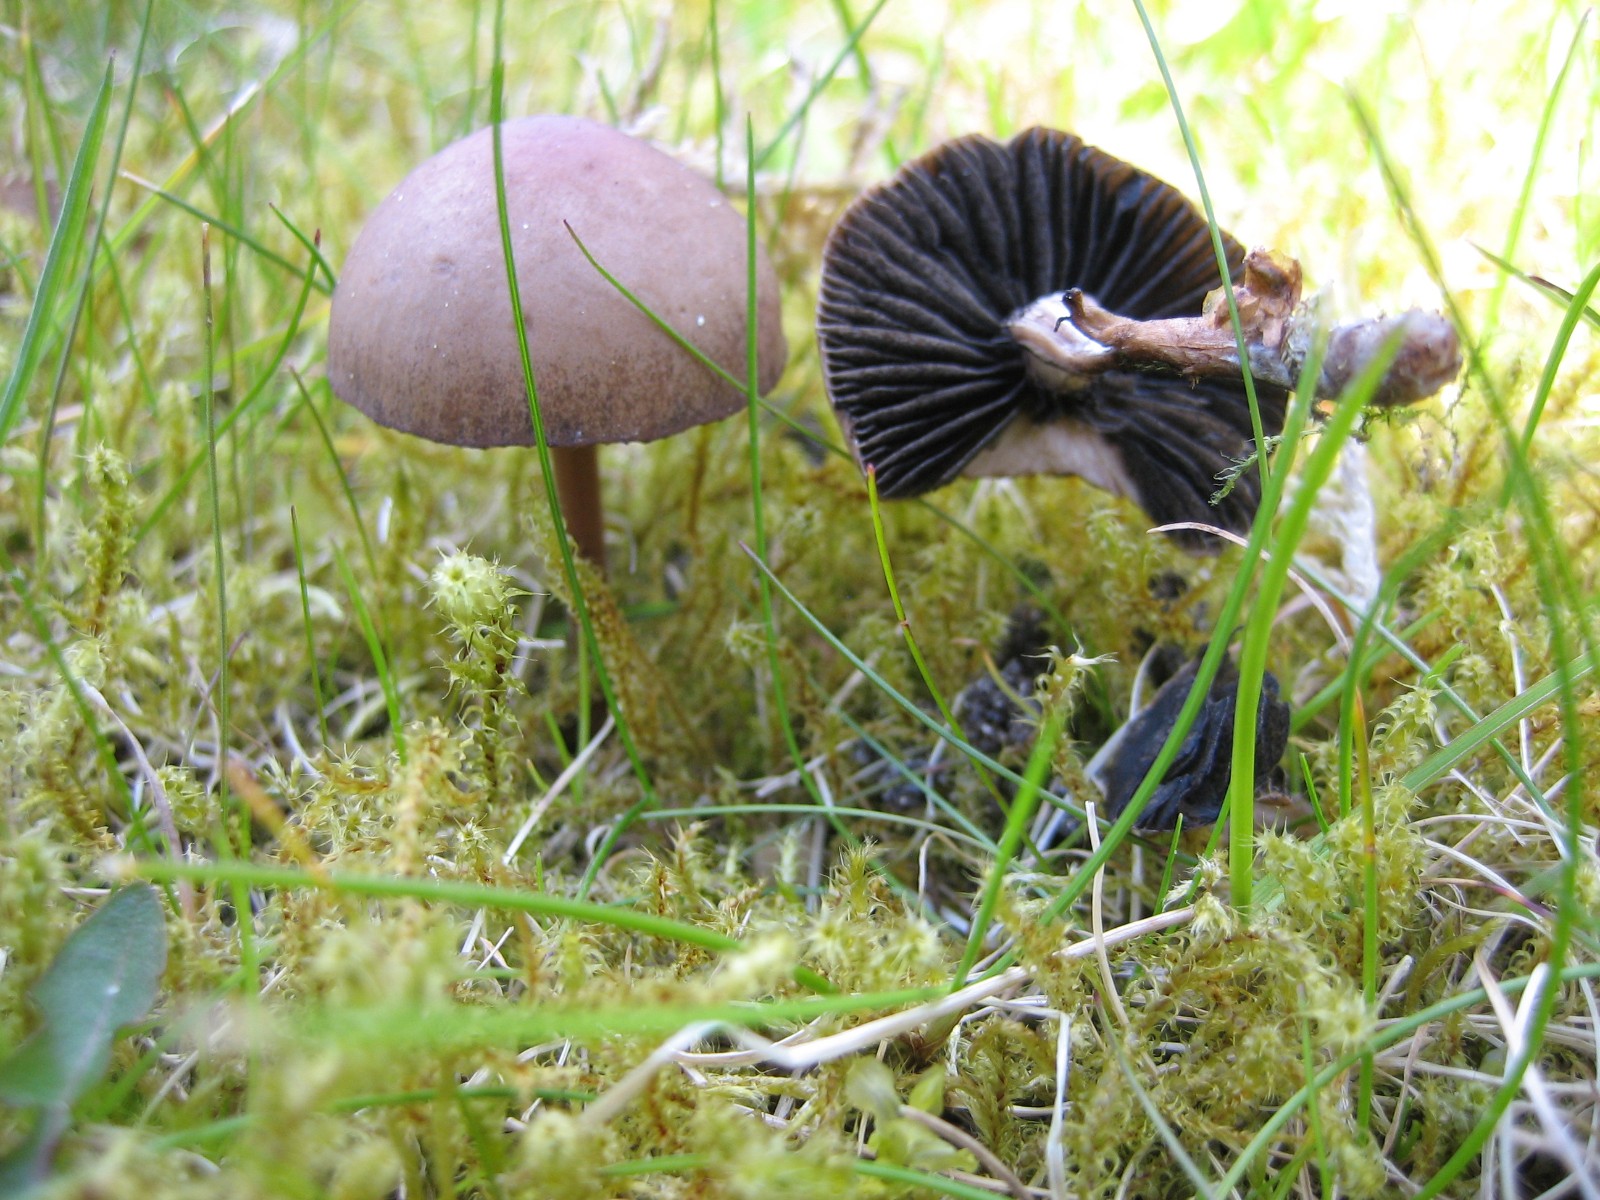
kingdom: Fungi
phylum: Basidiomycota
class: Agaricomycetes
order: Agaricales
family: Bolbitiaceae
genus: Panaeolus
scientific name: Panaeolus fimicola
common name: tidlig glanshat
